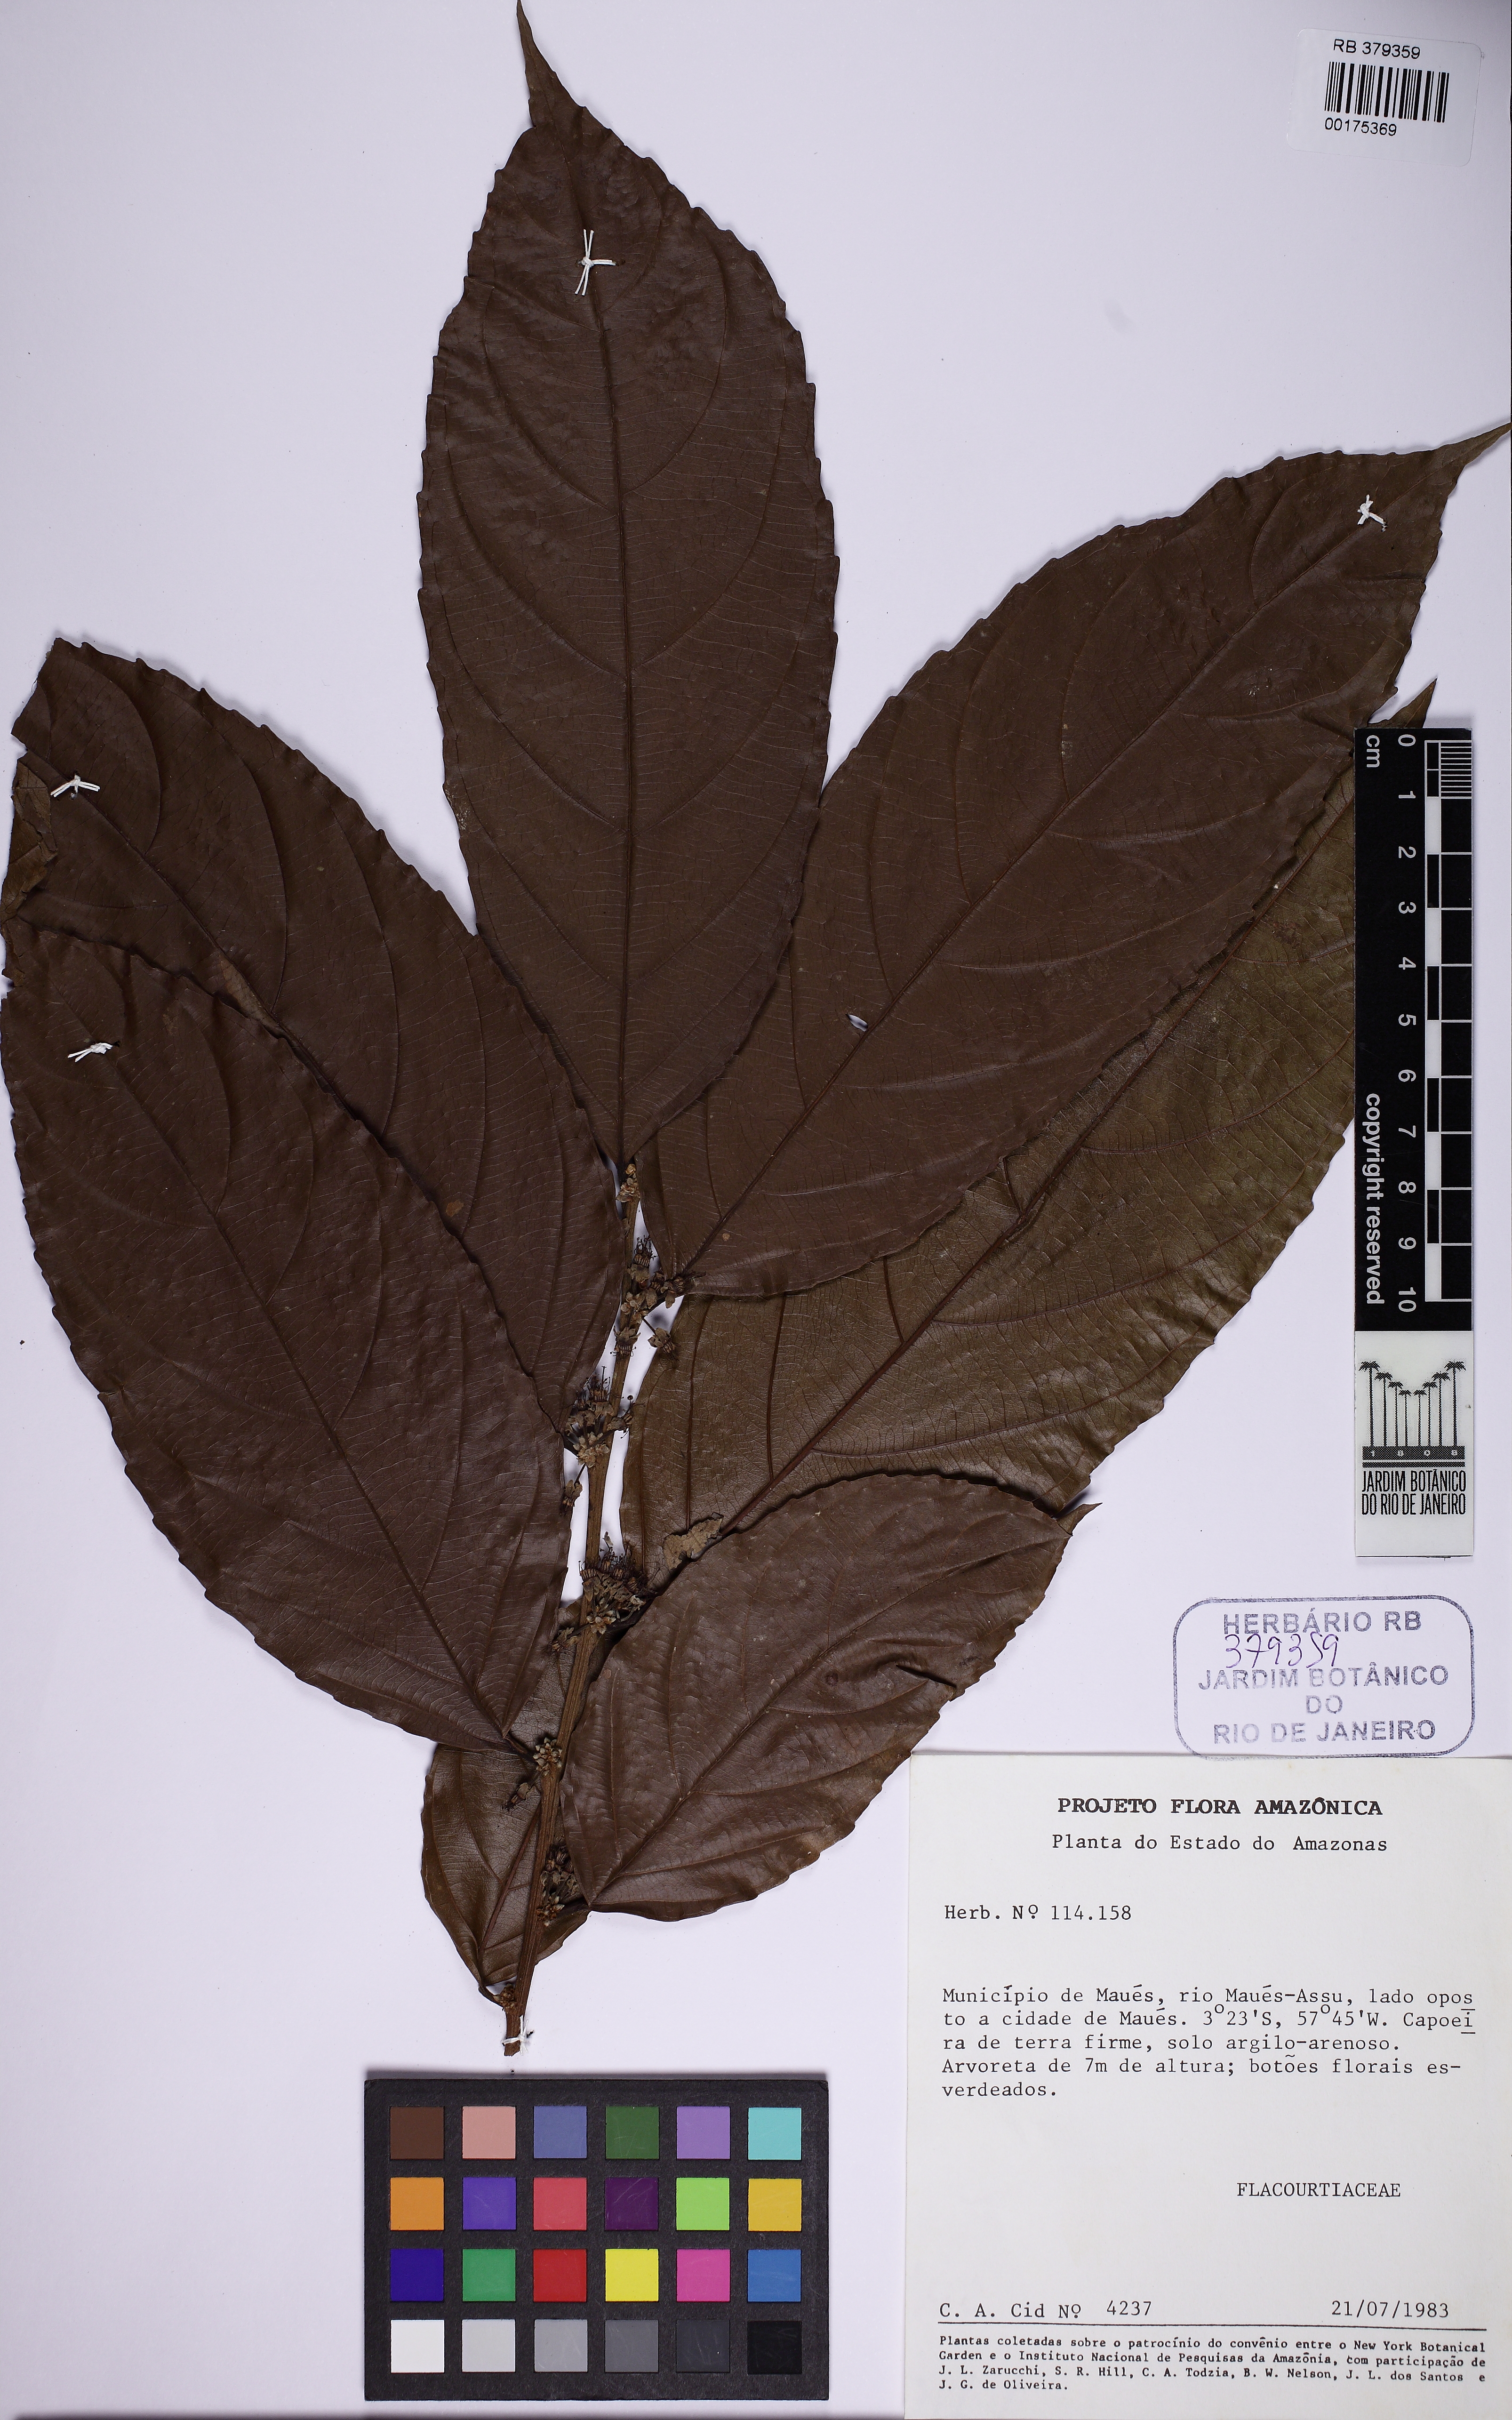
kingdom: Plantae
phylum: Tracheophyta
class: Magnoliopsida
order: Malpighiales
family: Flacourtiaceae
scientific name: Flacourtiaceae
